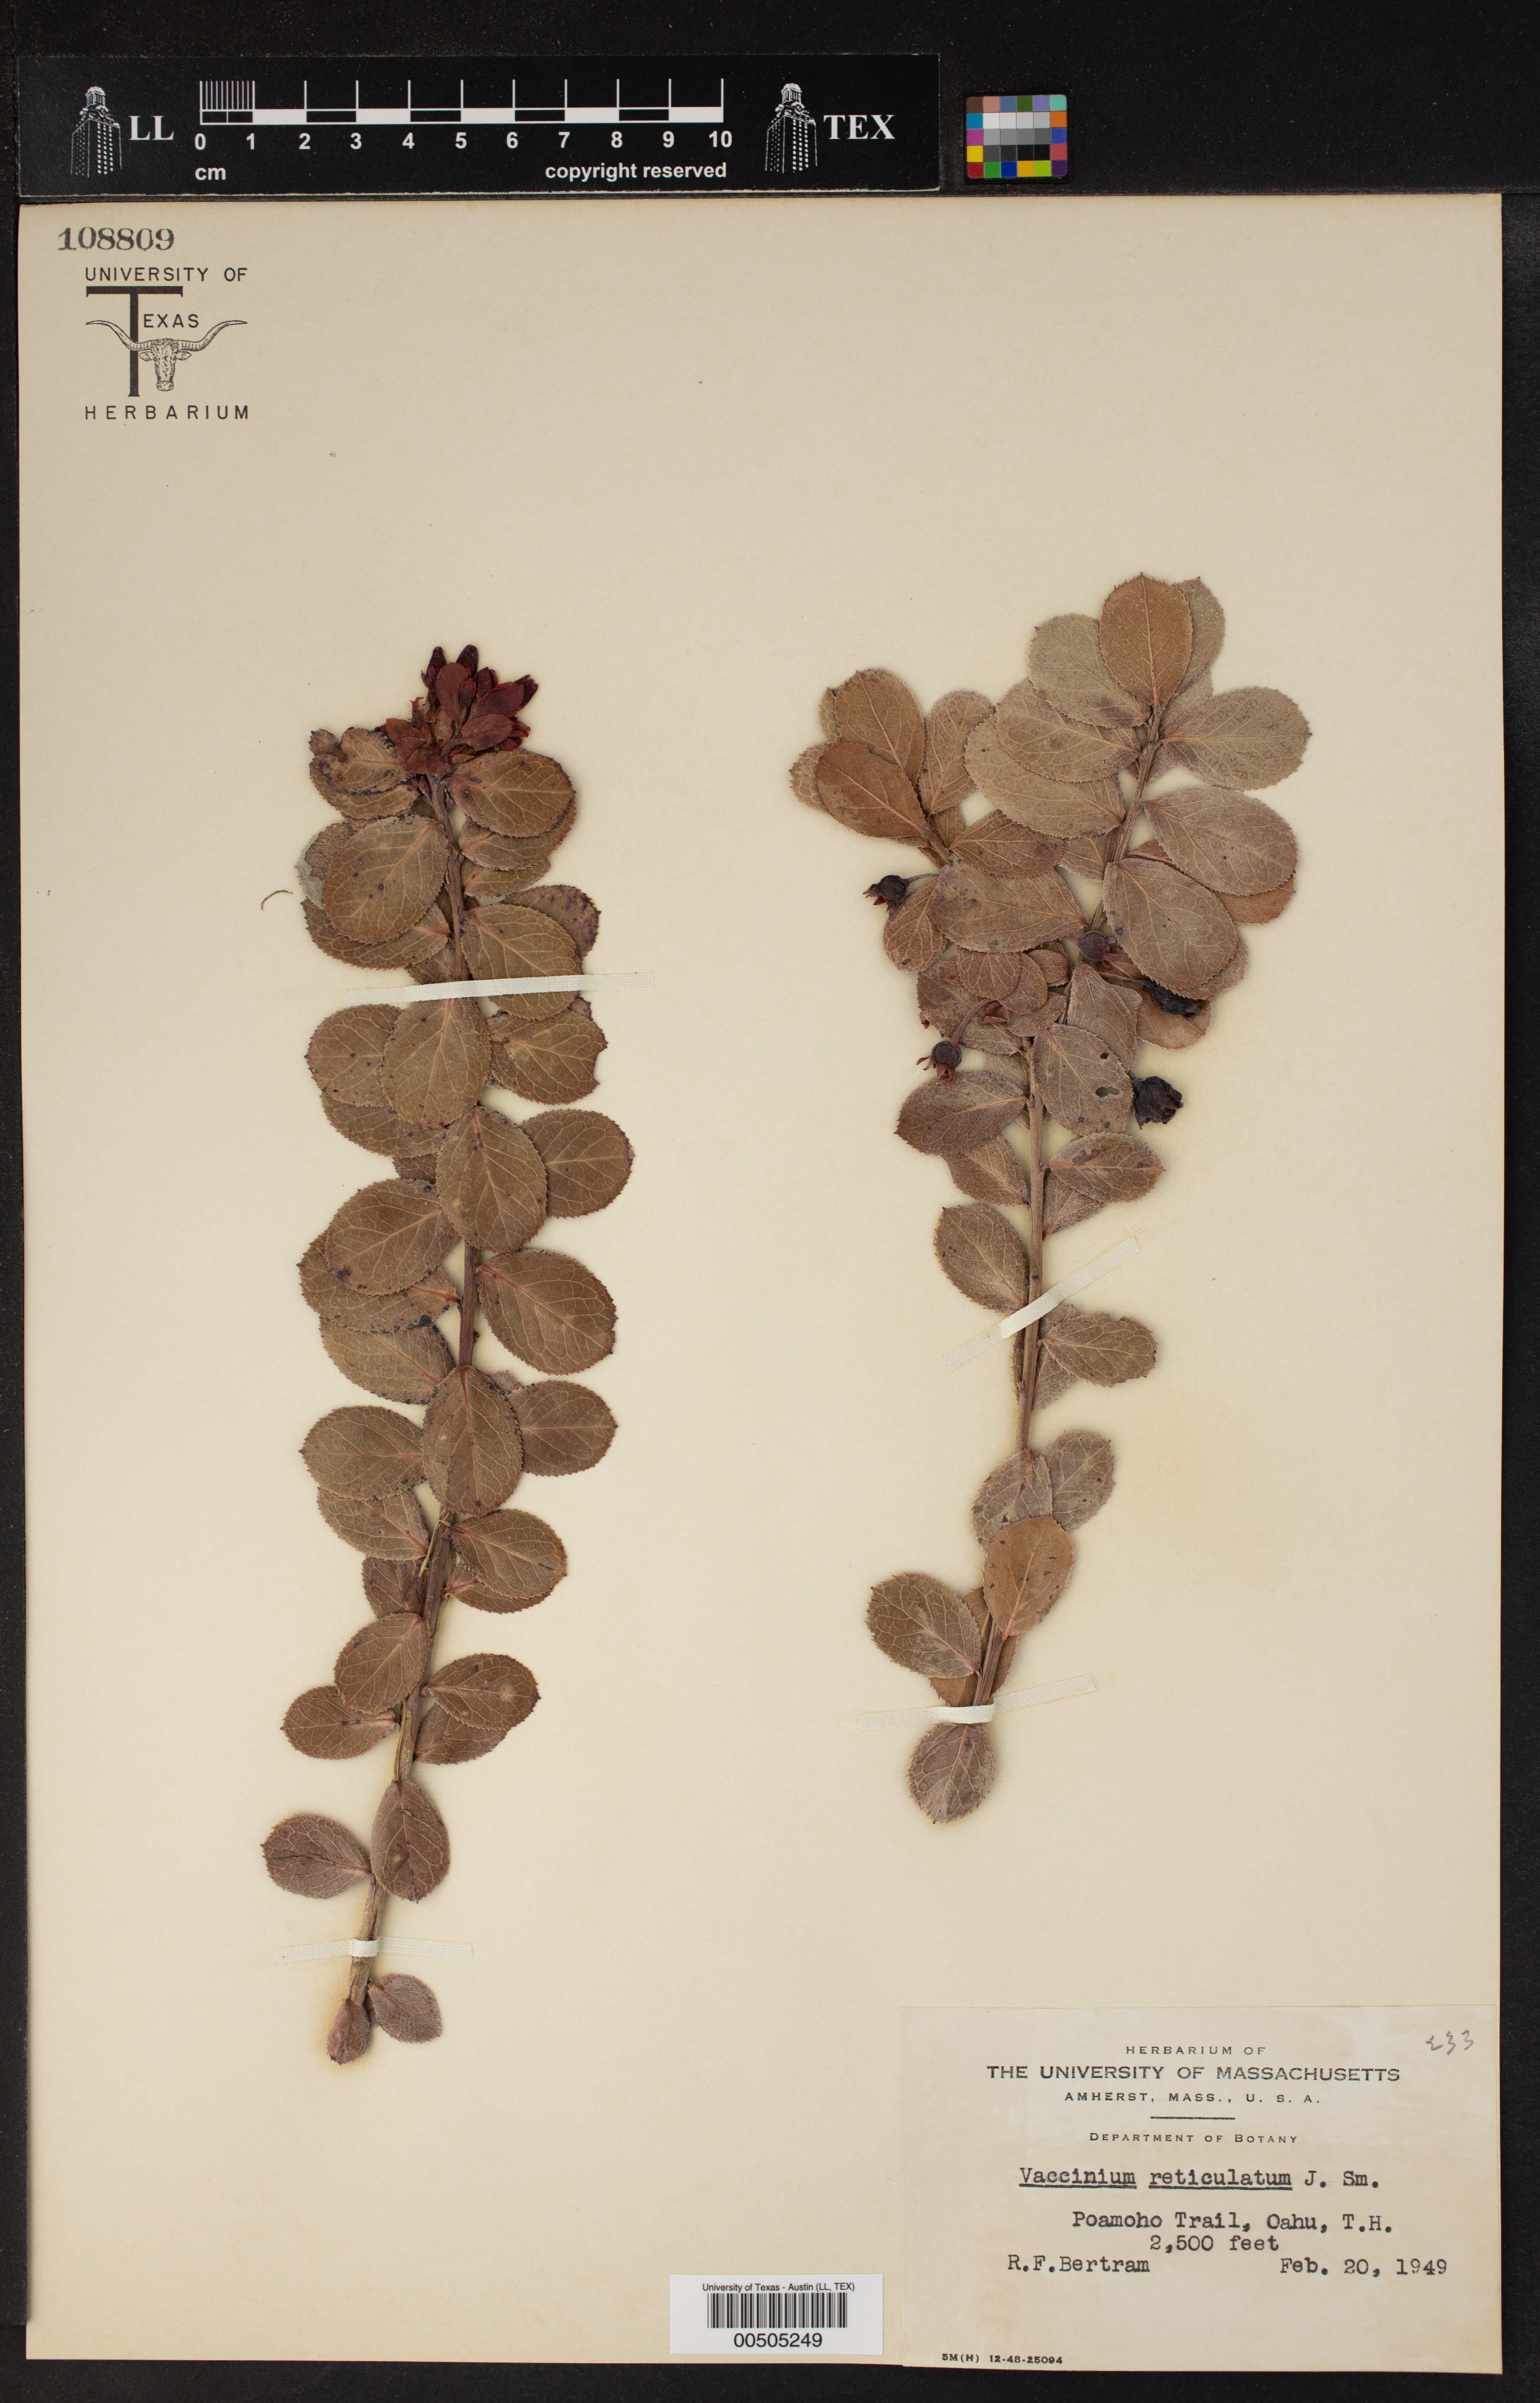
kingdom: Plantae
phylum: Tracheophyta
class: Magnoliopsida
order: Ericales
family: Ericaceae
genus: Vaccinium
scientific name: Vaccinium reticulatum
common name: Ohelo
